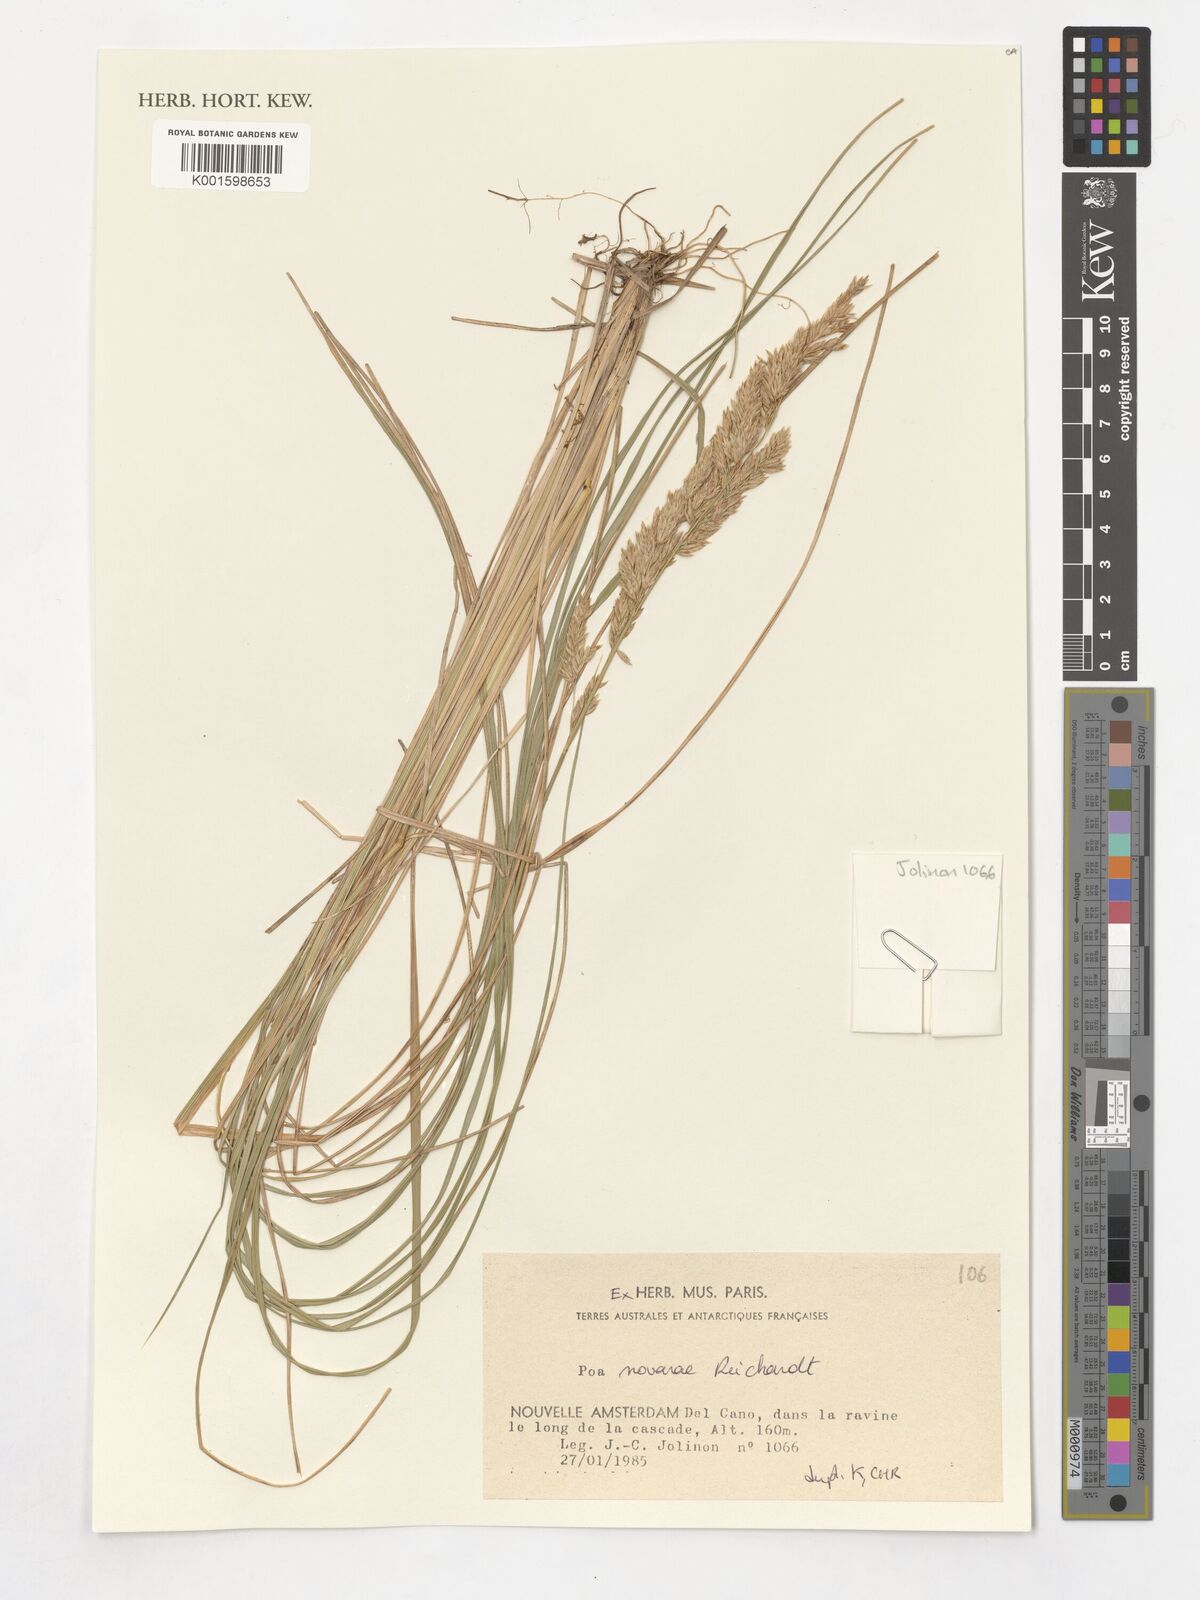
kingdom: Plantae
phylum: Tracheophyta
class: Liliopsida
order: Poales
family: Poaceae
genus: Poa
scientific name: Poa novarae
